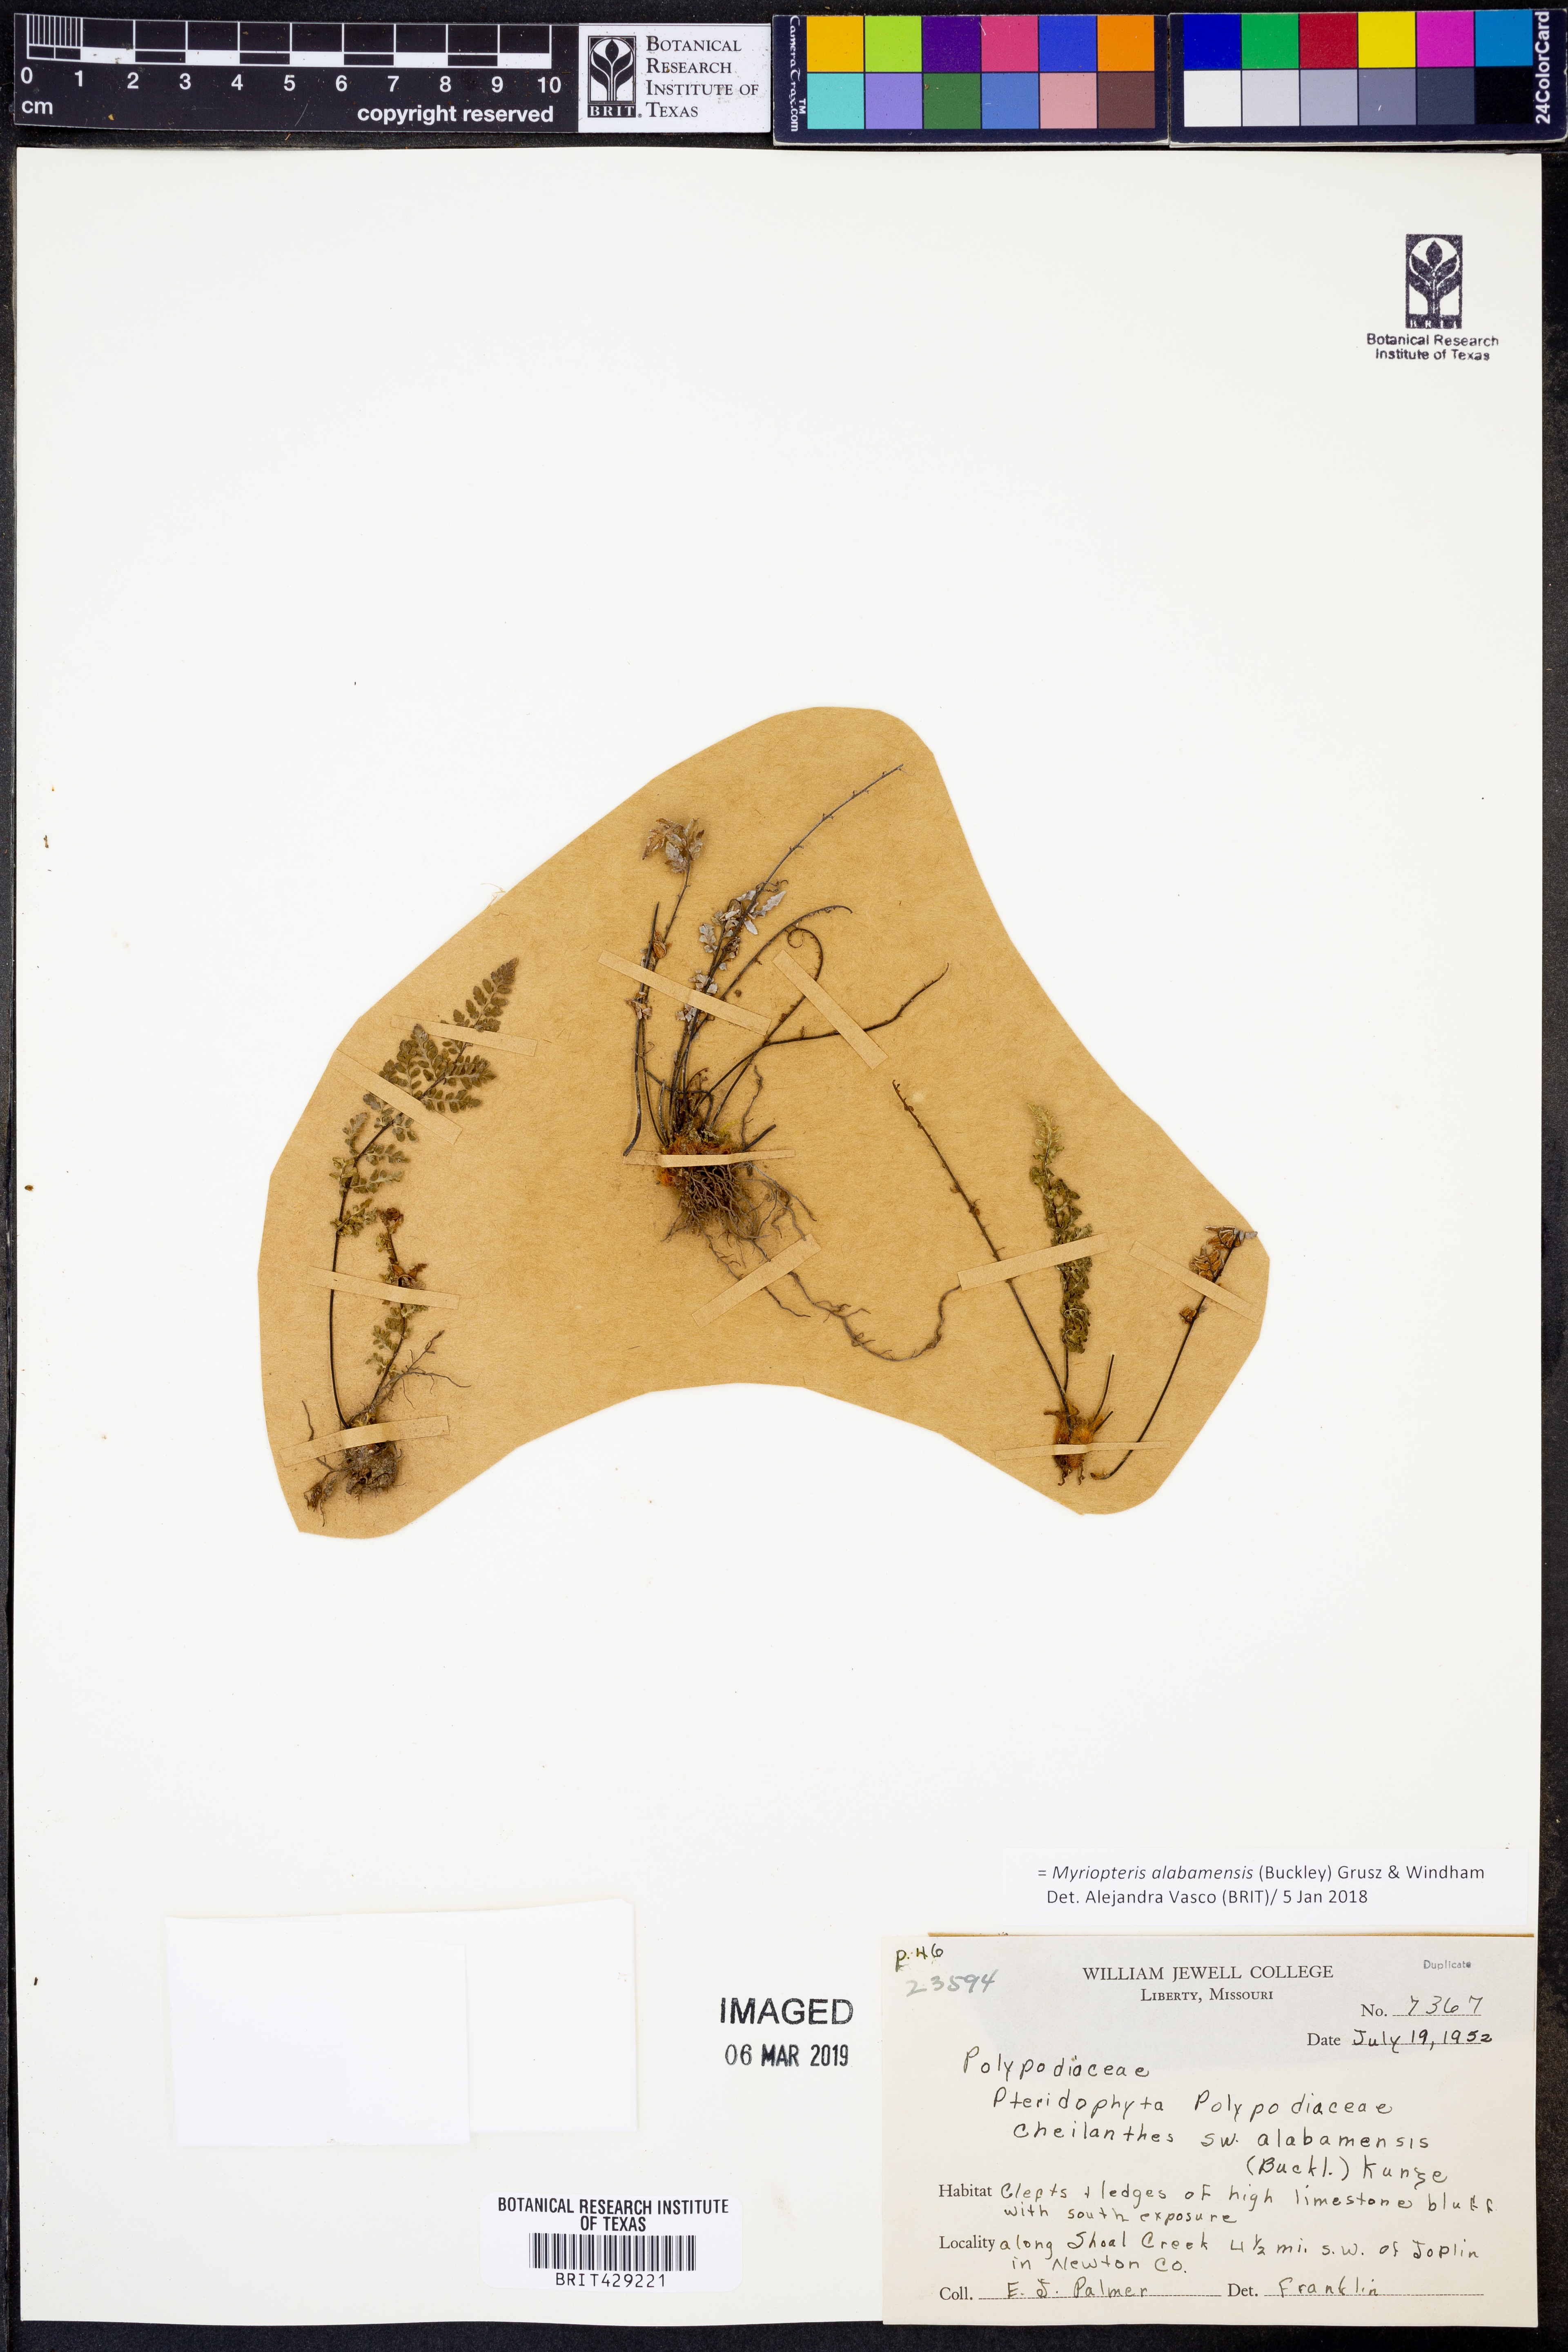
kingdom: Plantae
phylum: Tracheophyta
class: Polypodiopsida
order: Polypodiales
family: Pteridaceae
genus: Myriopteris
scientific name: Myriopteris alabamensis
